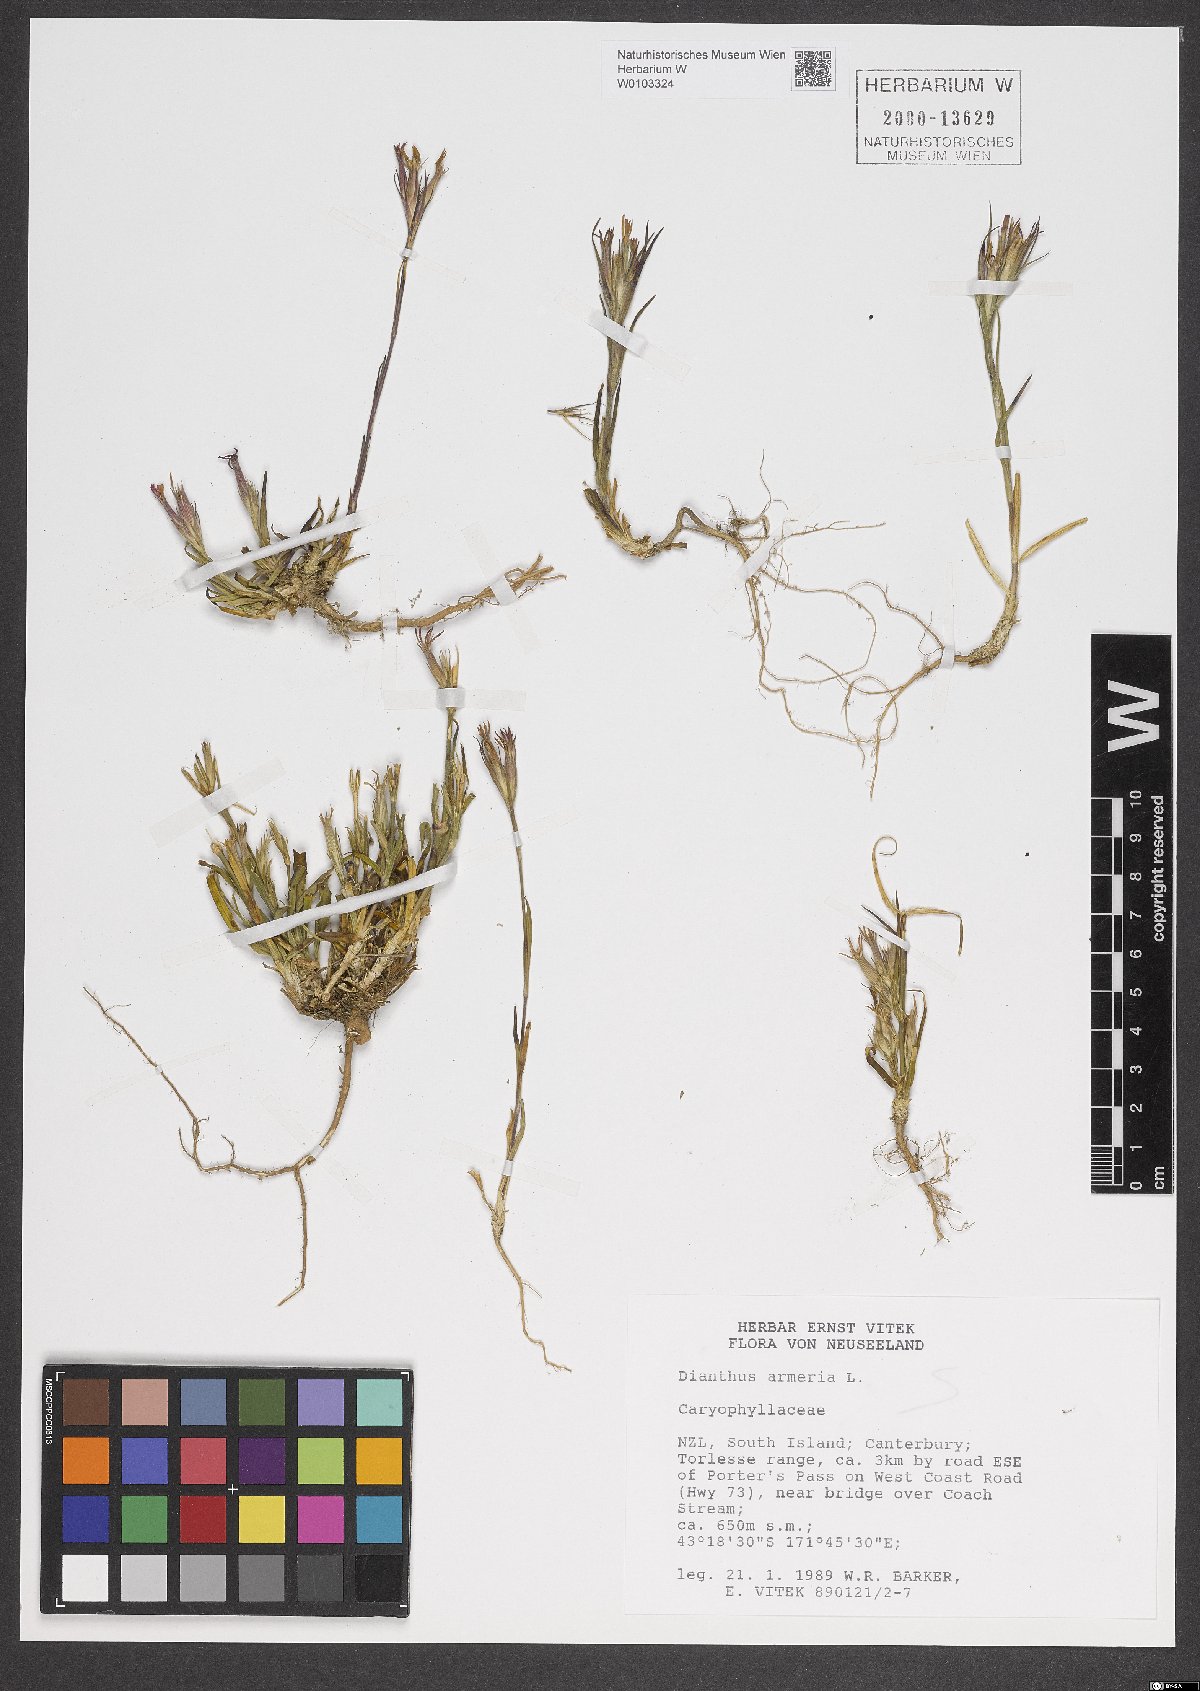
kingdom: Plantae
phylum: Tracheophyta
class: Magnoliopsida
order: Caryophyllales
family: Caryophyllaceae
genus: Dianthus
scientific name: Dianthus armeria
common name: Deptford pink
